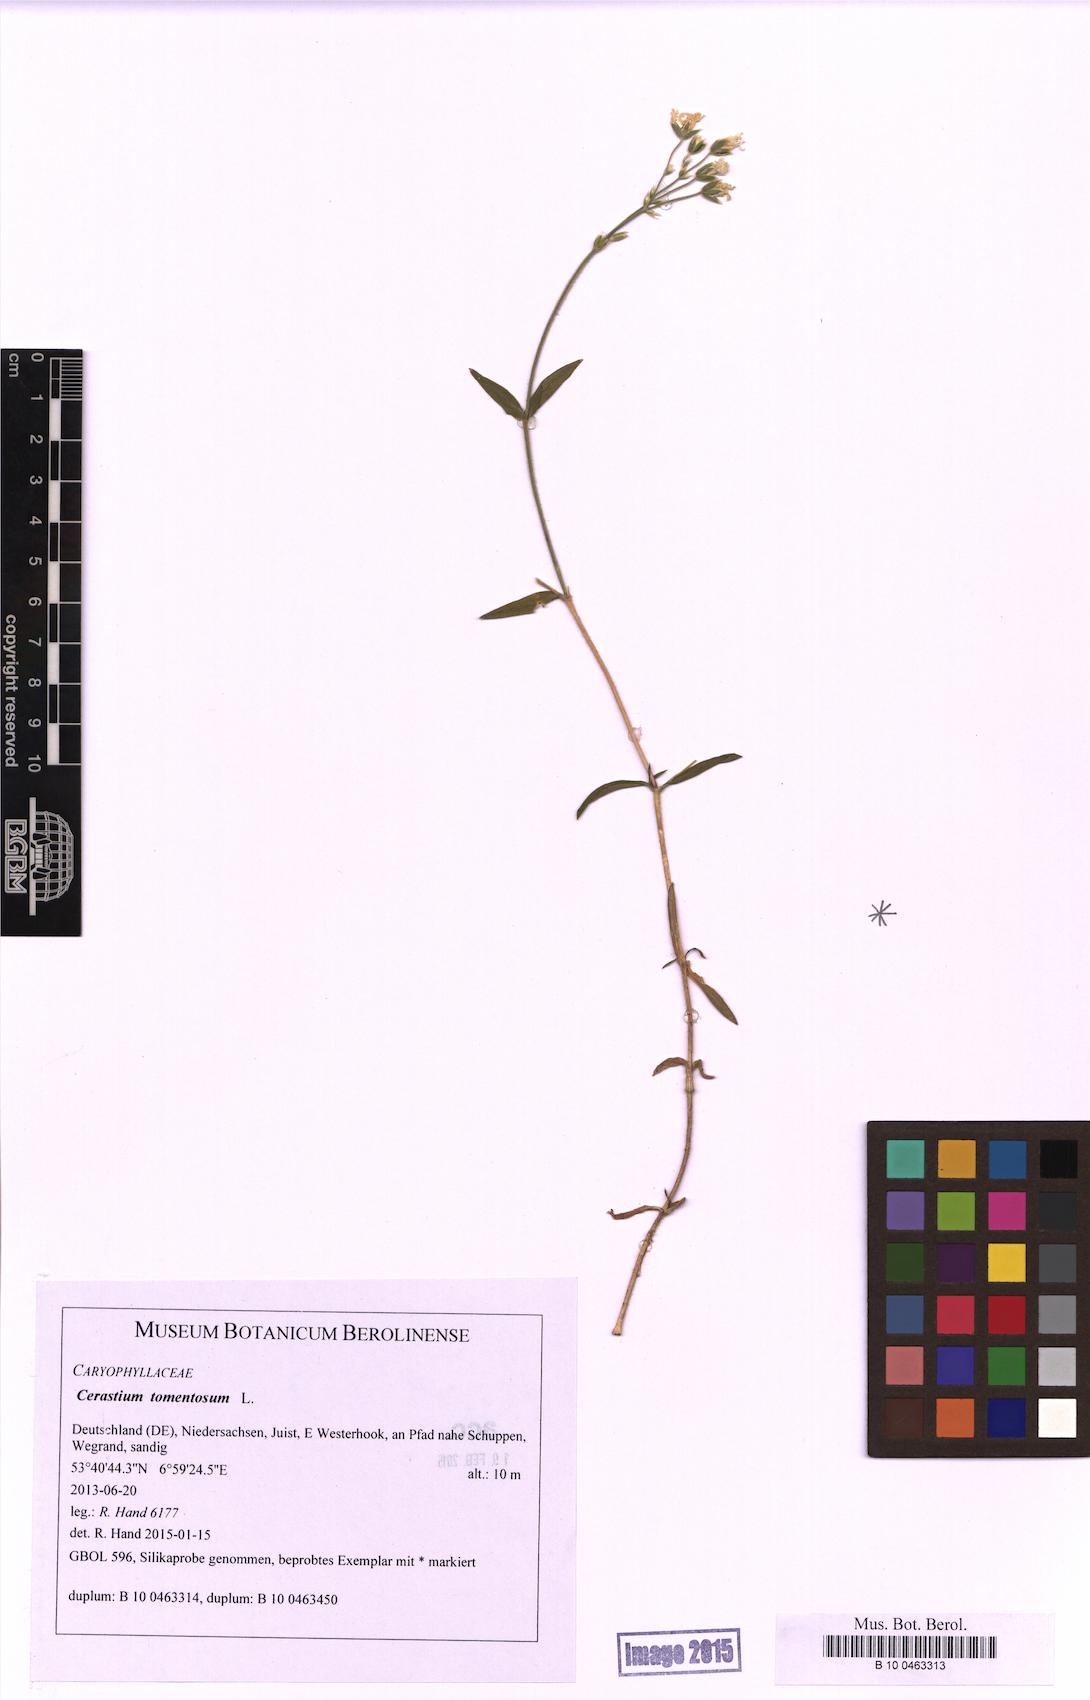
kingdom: Plantae
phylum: Tracheophyta
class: Magnoliopsida
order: Caryophyllales
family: Caryophyllaceae
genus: Cerastium
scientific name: Cerastium tomentosum
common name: Snow-in-summer
